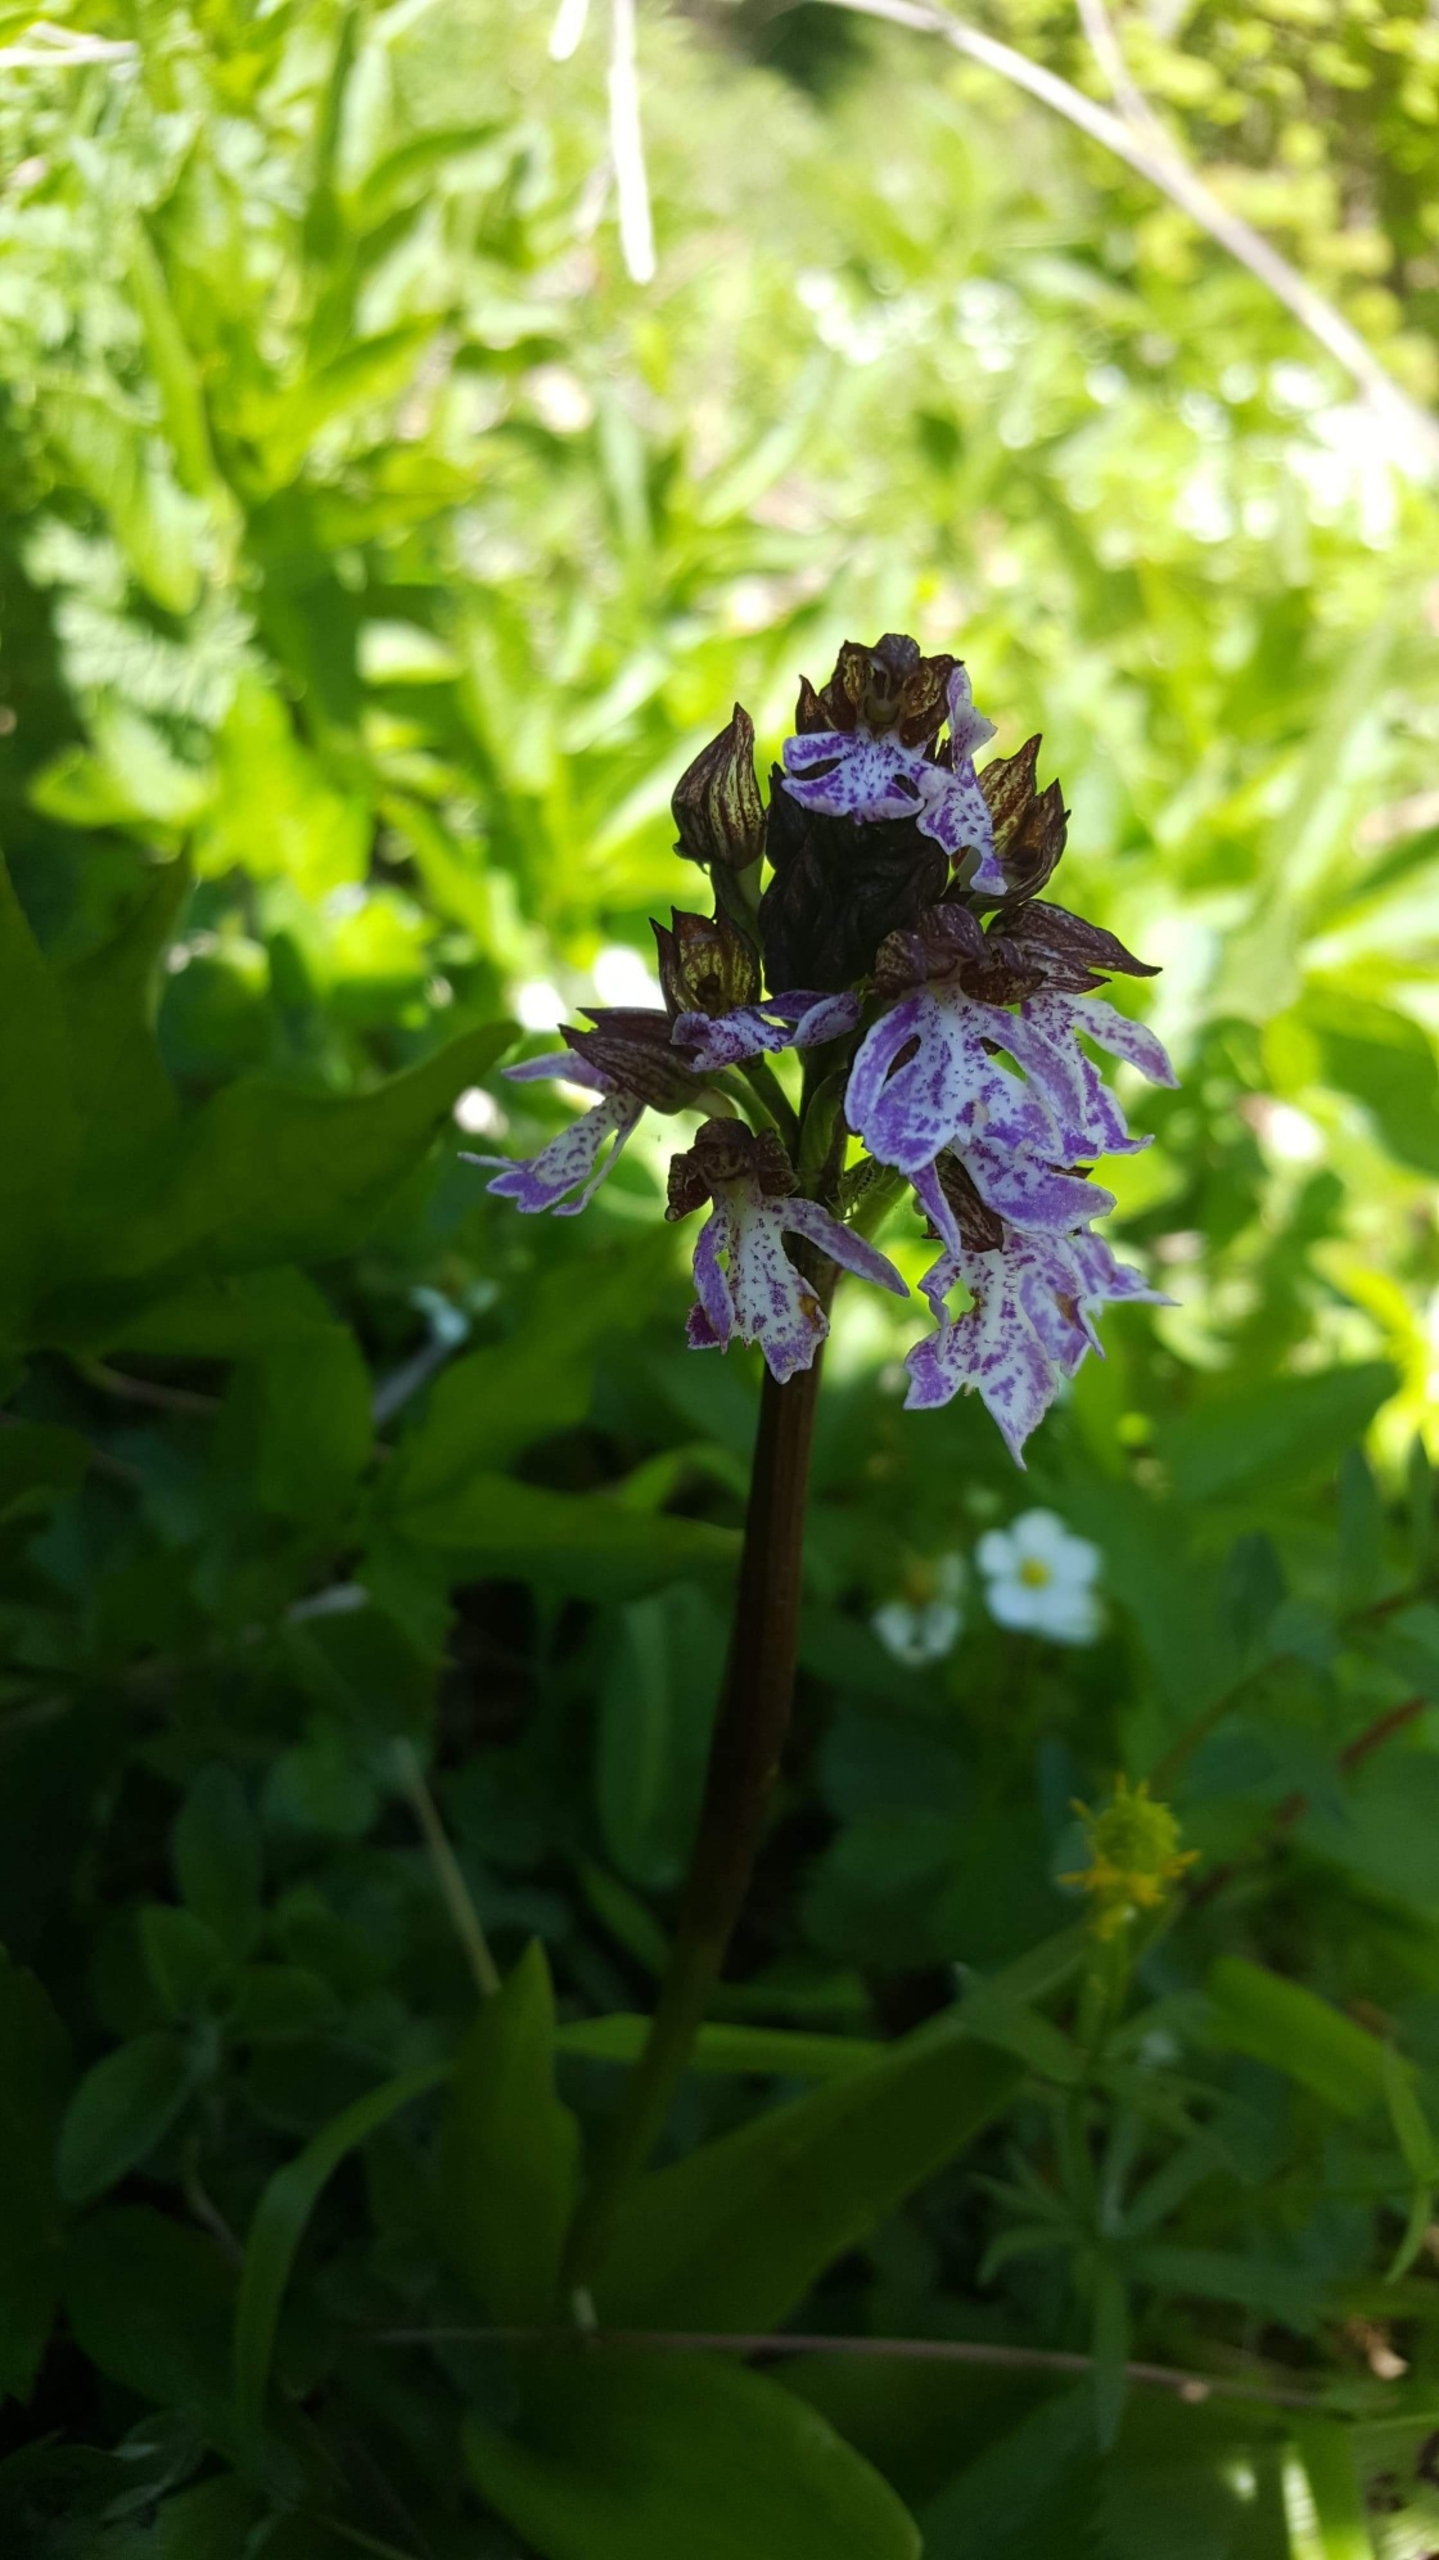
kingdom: Plantae
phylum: Tracheophyta
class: Liliopsida
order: Asparagales
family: Orchidaceae
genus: Orchis
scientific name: Orchis purpurea
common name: Stor gøgeurt
